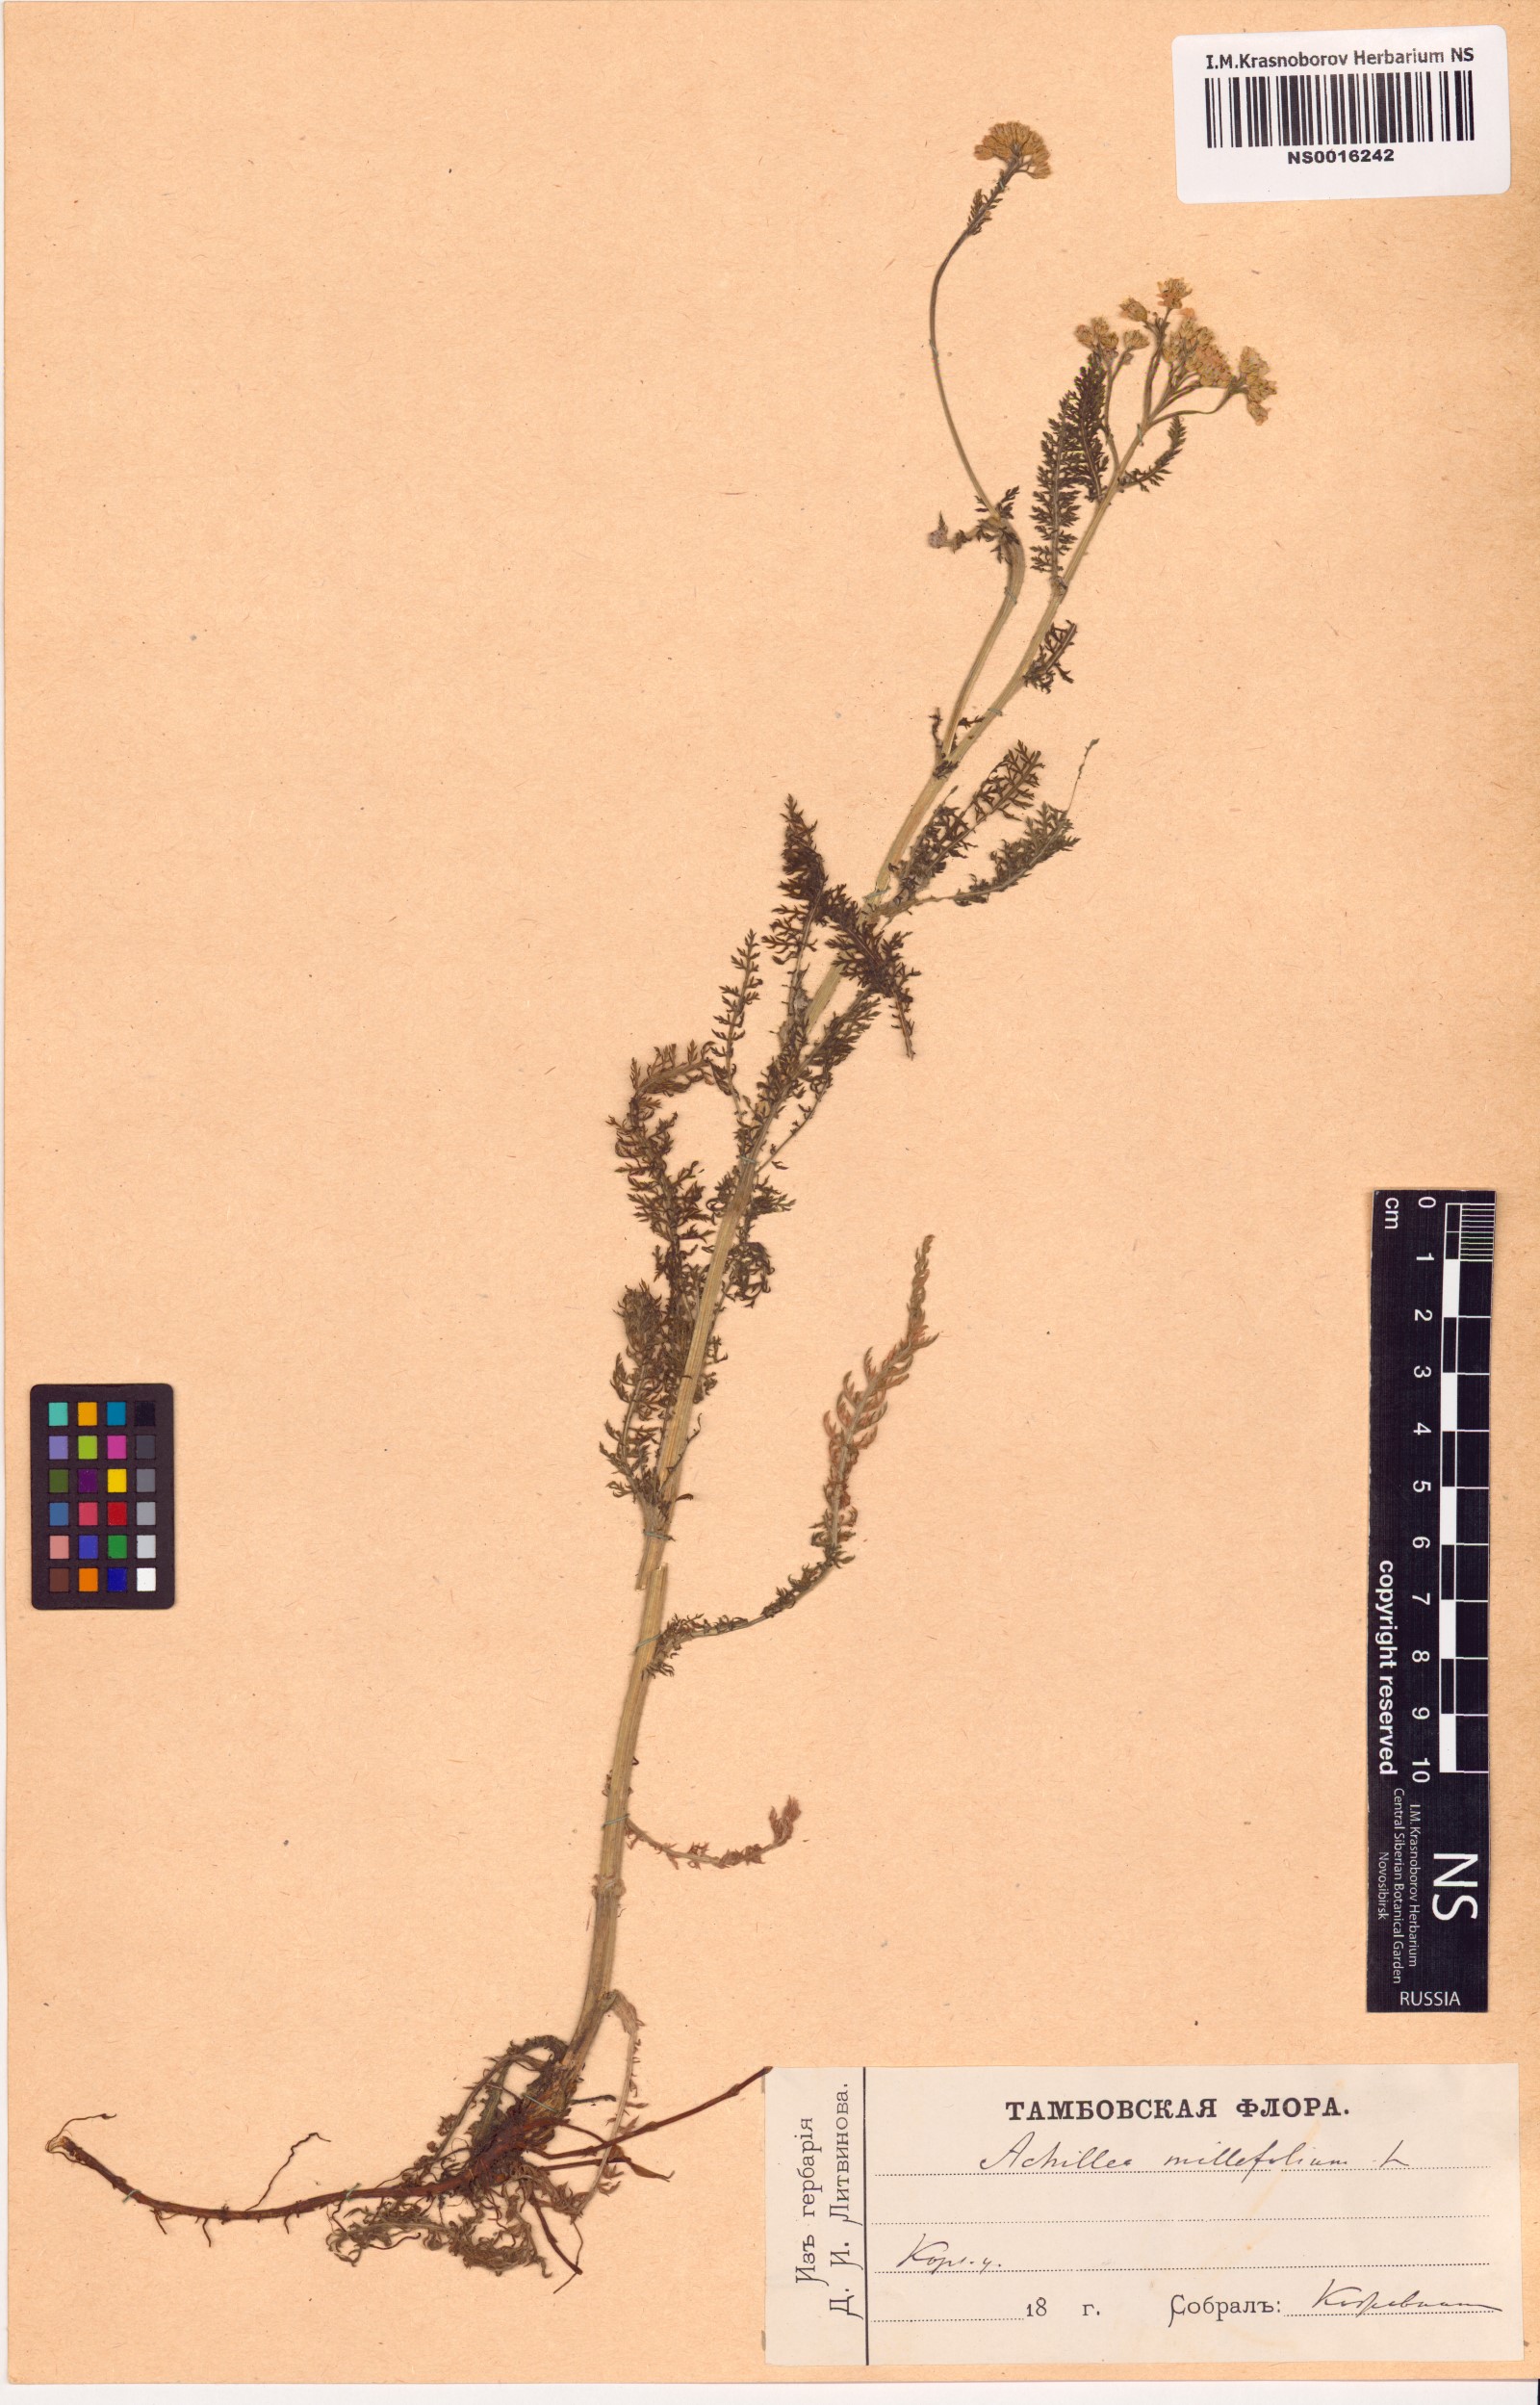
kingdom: Plantae
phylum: Tracheophyta
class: Magnoliopsida
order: Asterales
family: Asteraceae
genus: Achillea
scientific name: Achillea millefolium
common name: Yarrow
